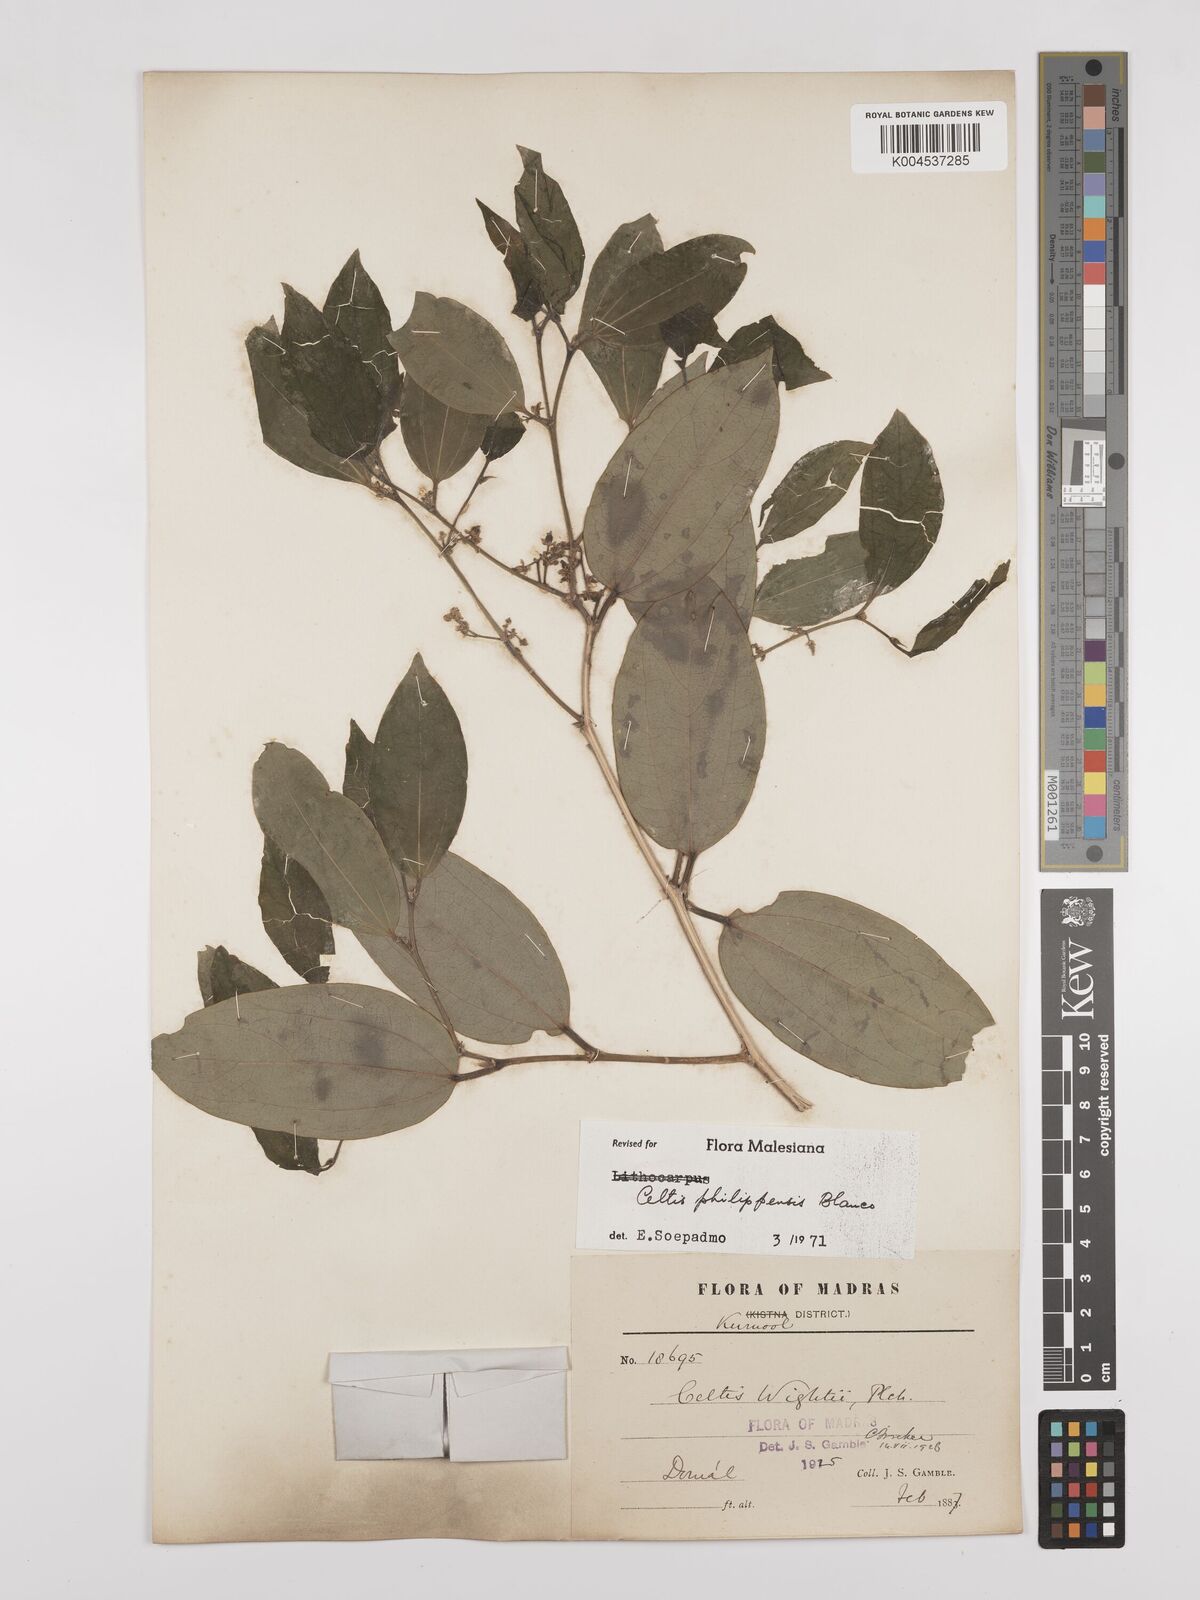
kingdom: Plantae
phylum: Tracheophyta
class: Magnoliopsida
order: Rosales
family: Cannabaceae
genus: Celtis
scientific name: Celtis philippensis
